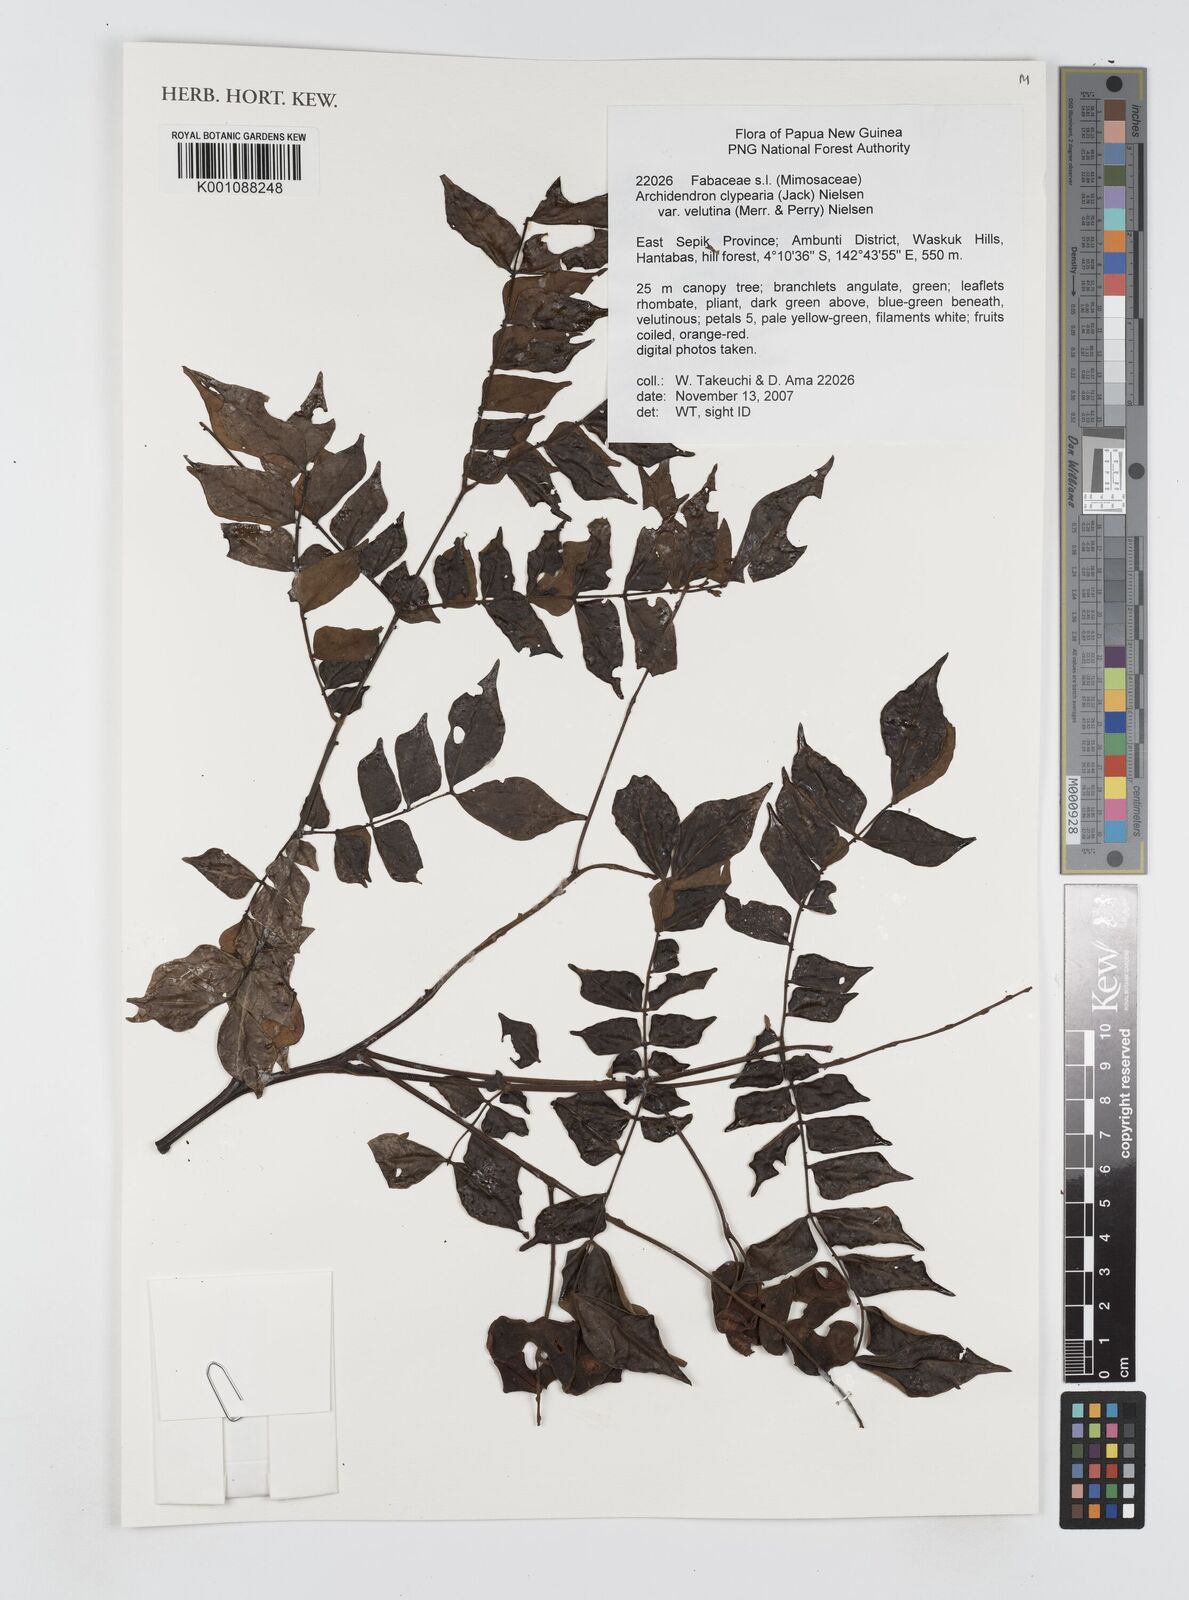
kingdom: Plantae
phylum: Tracheophyta
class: Magnoliopsida
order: Fabales
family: Fabaceae
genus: Archidendron
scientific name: Archidendron clypearia
